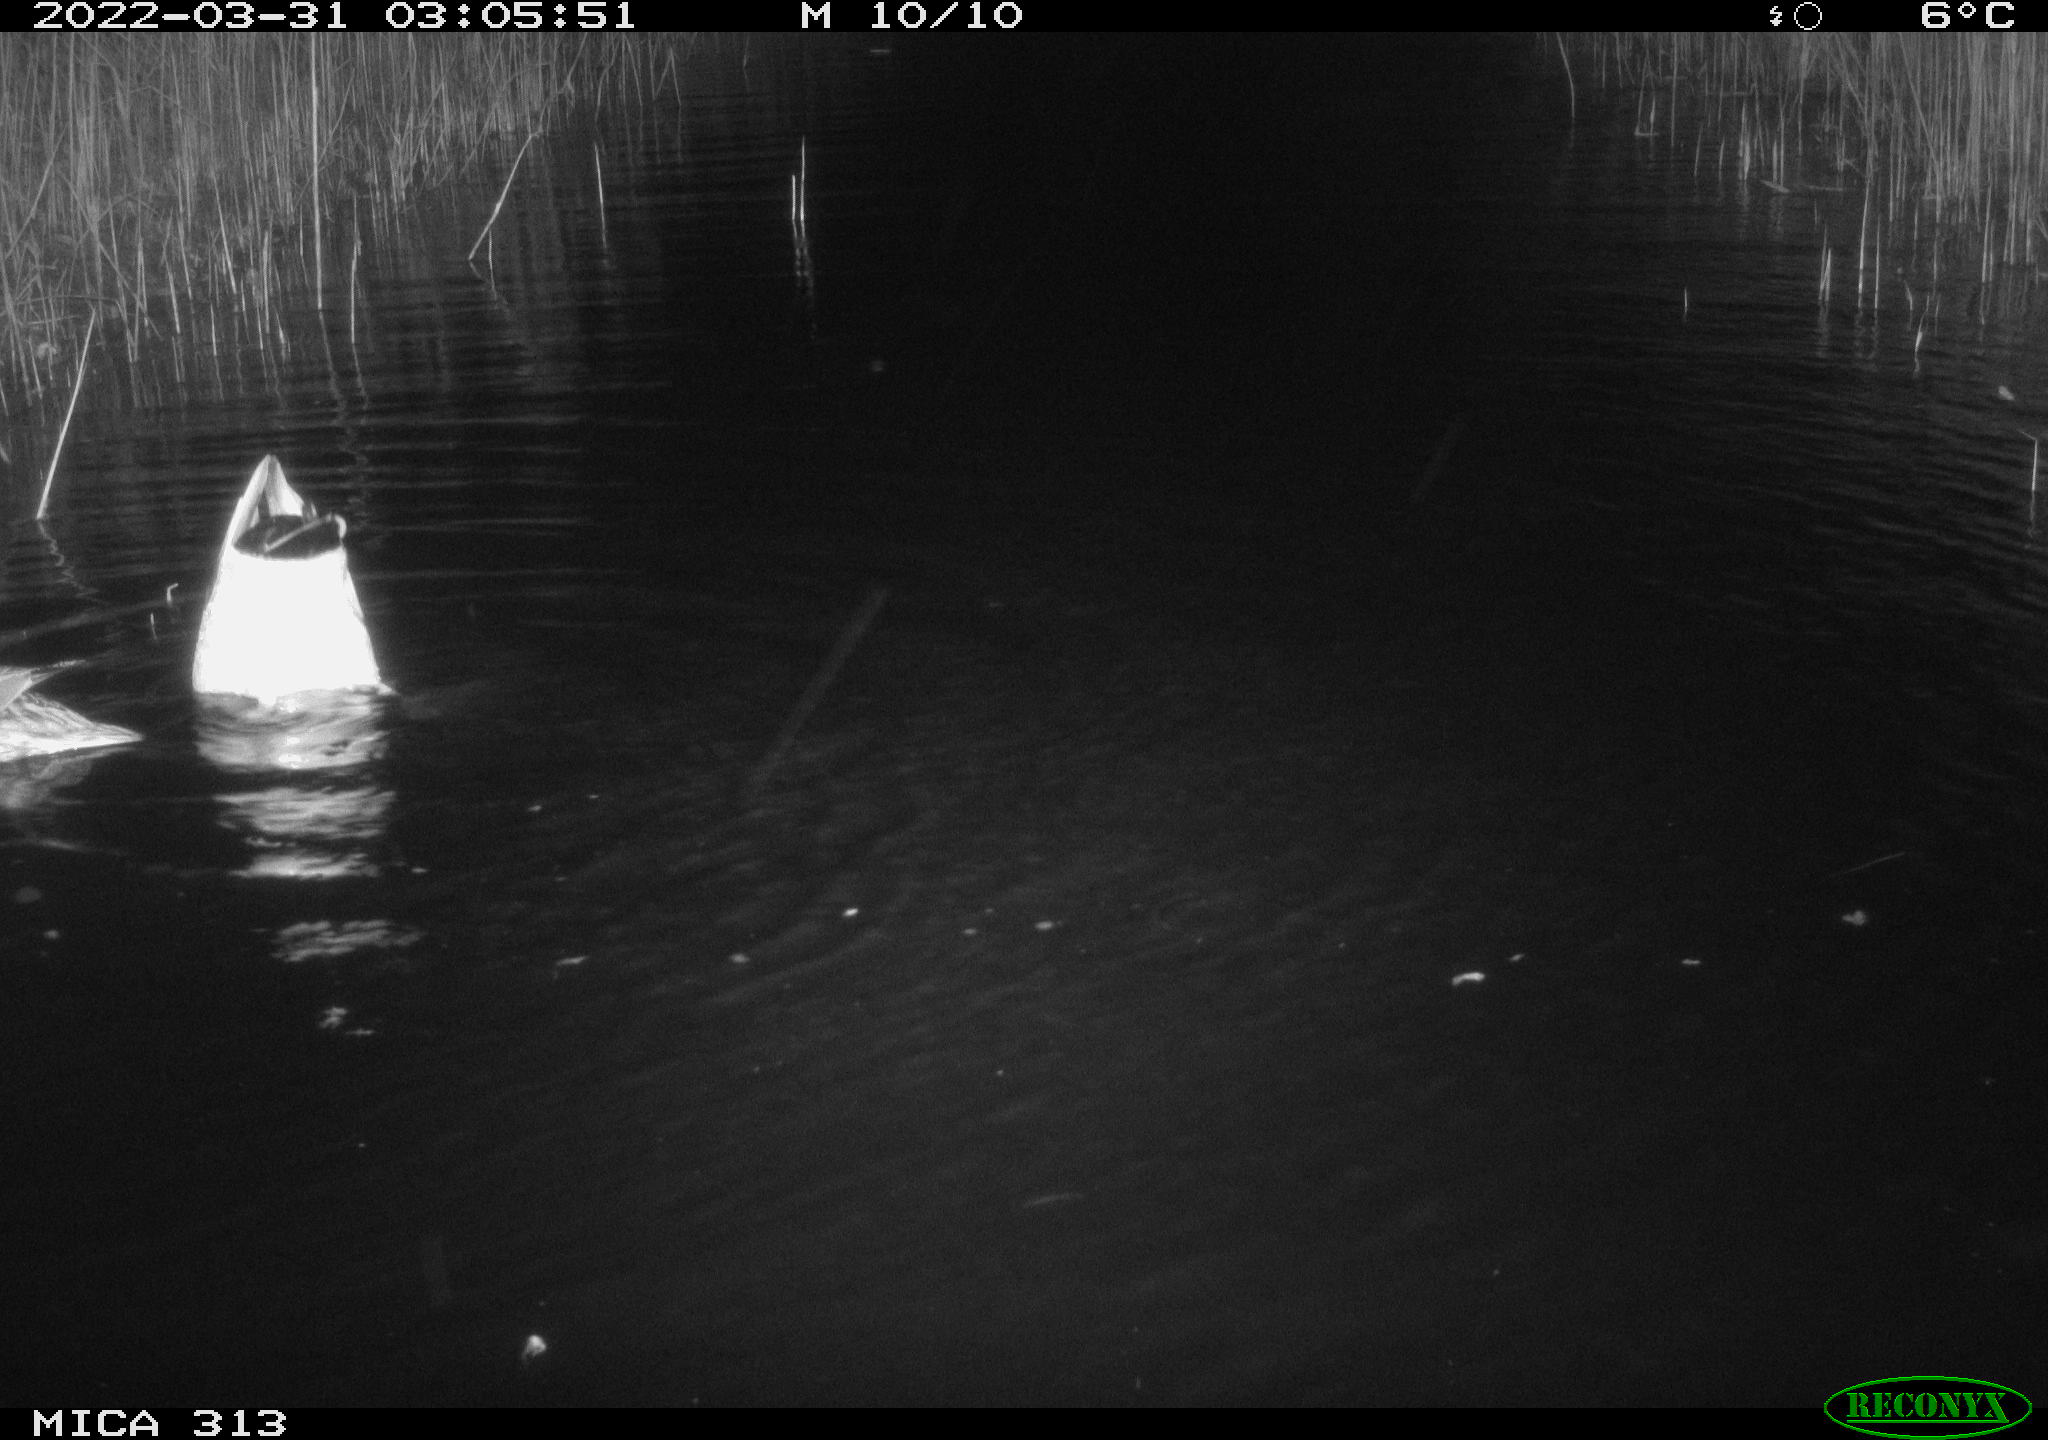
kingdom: Animalia
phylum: Chordata
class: Aves
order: Anseriformes
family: Anatidae
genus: Anas
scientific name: Anas platyrhynchos
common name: Mallard
